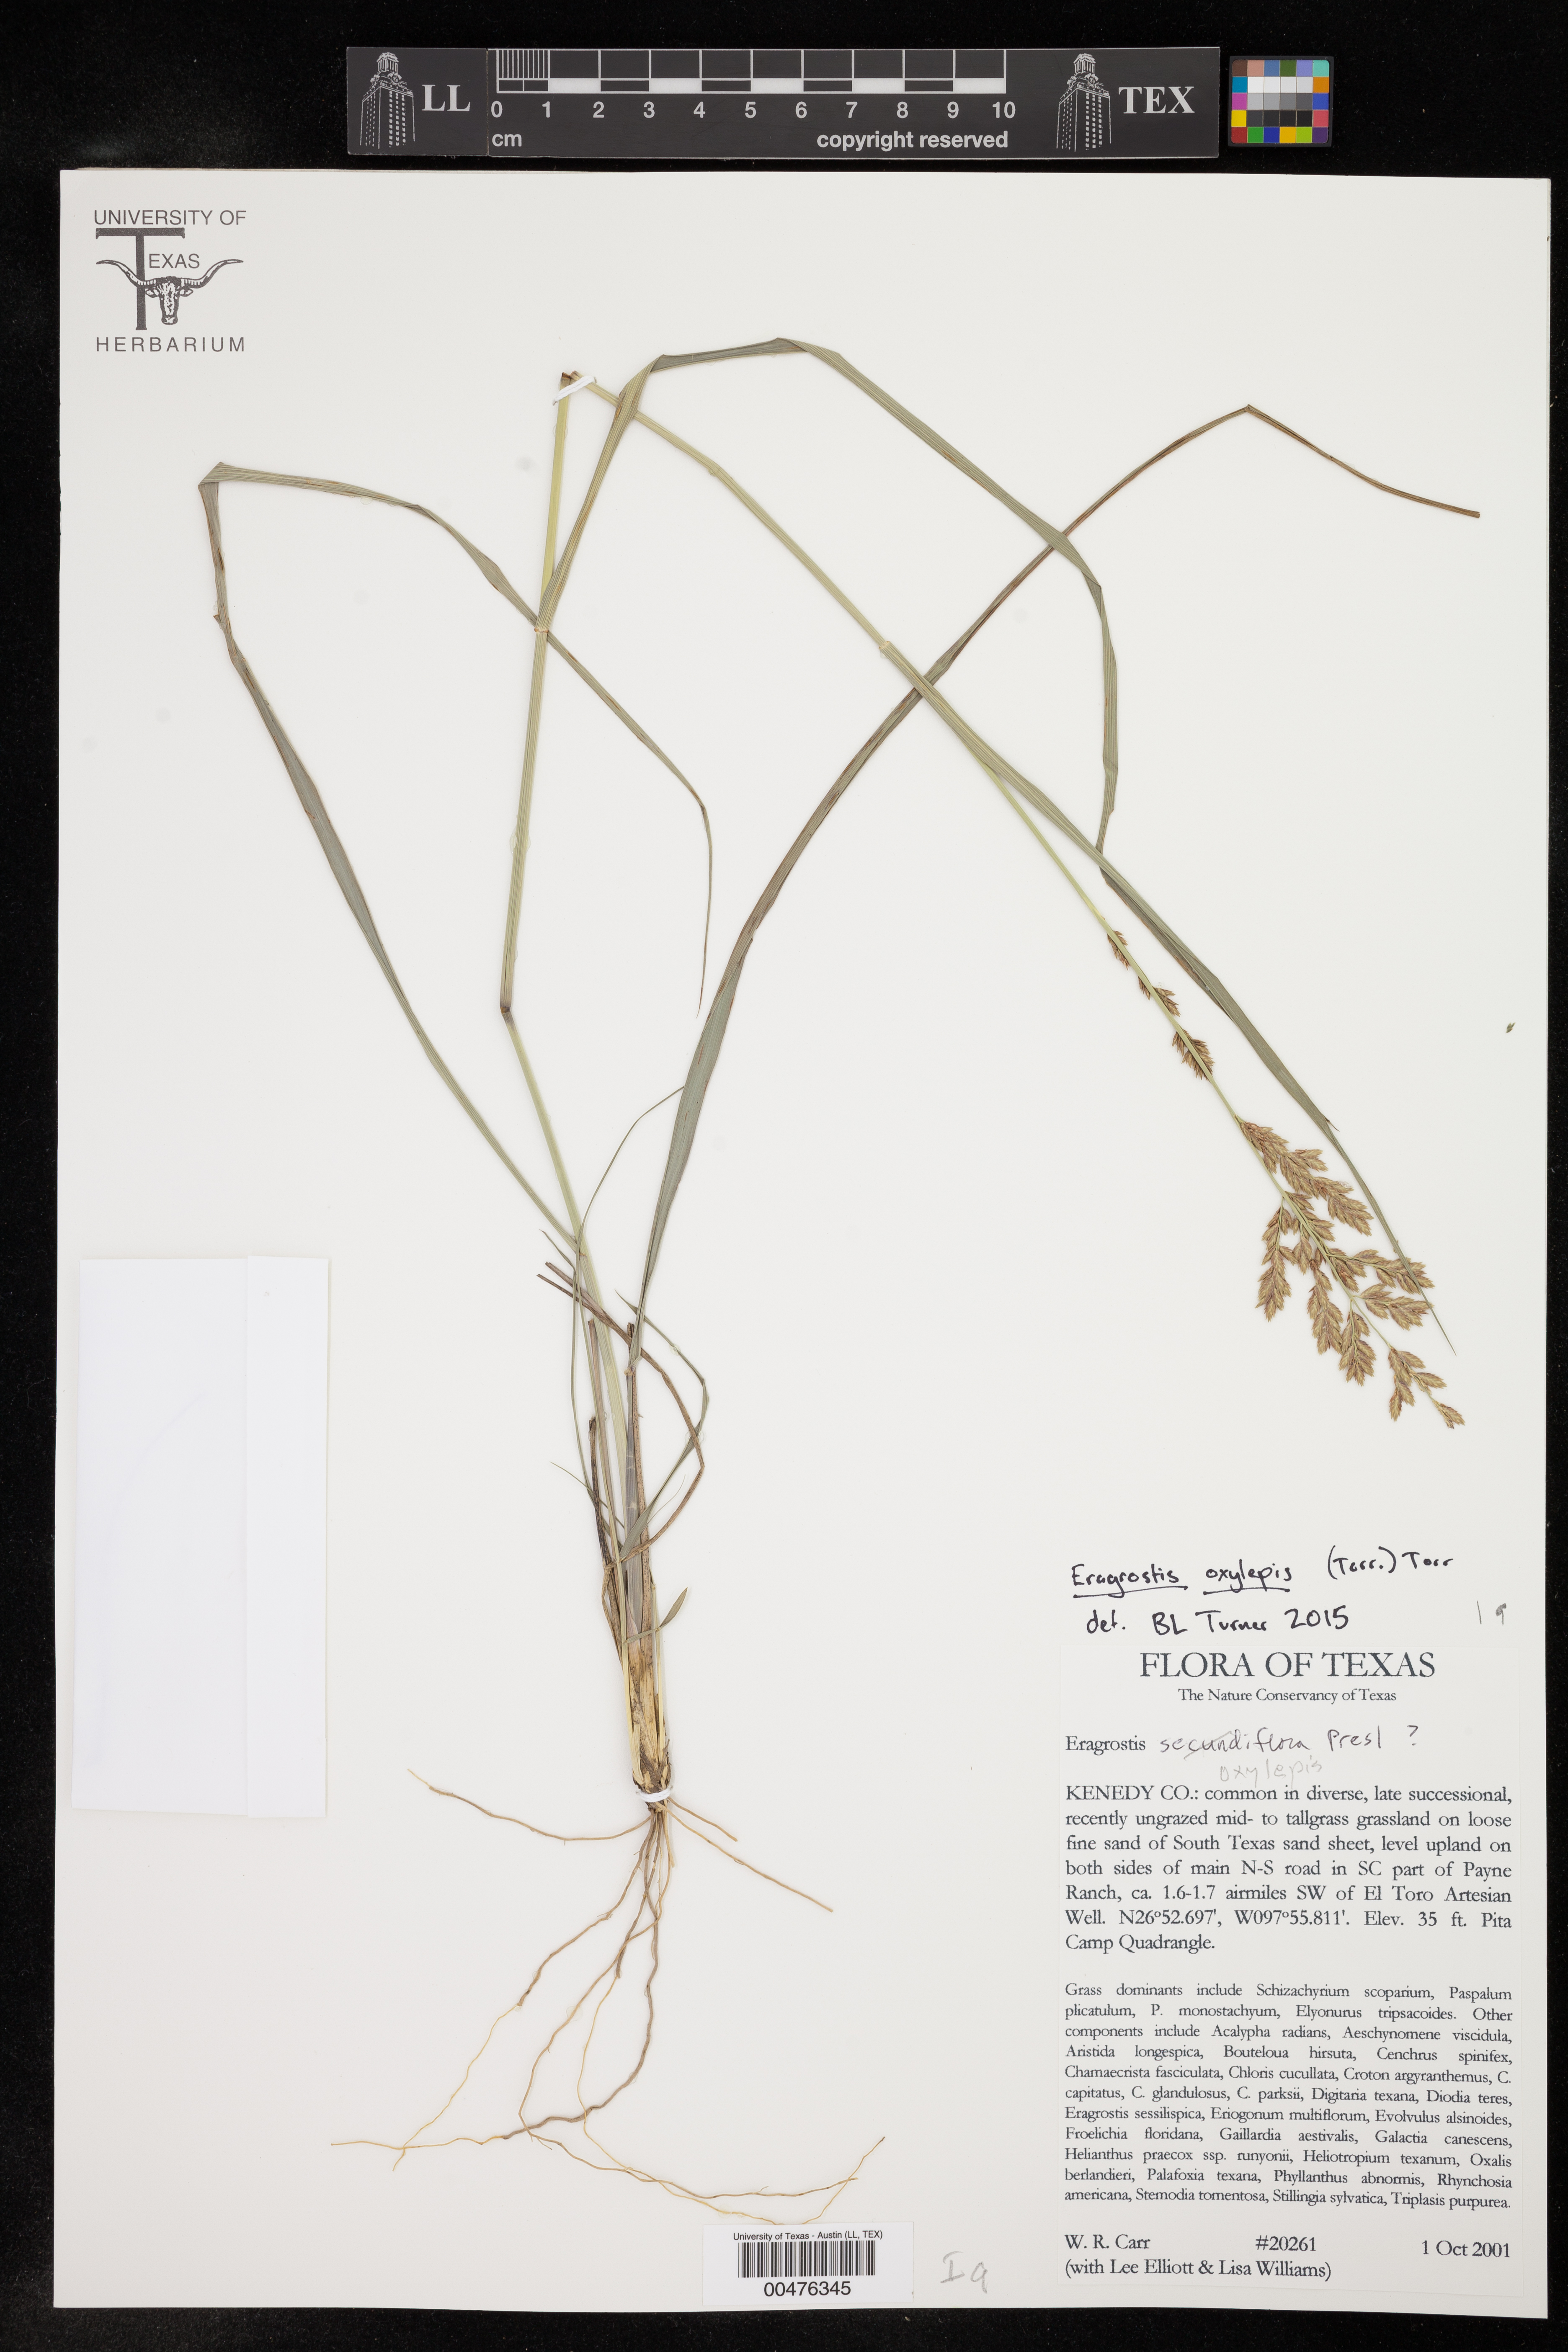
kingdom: Plantae
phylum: Tracheophyta
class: Liliopsida
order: Poales
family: Poaceae
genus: Eragrostis
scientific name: Eragrostis secundiflora
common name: Red love grass
